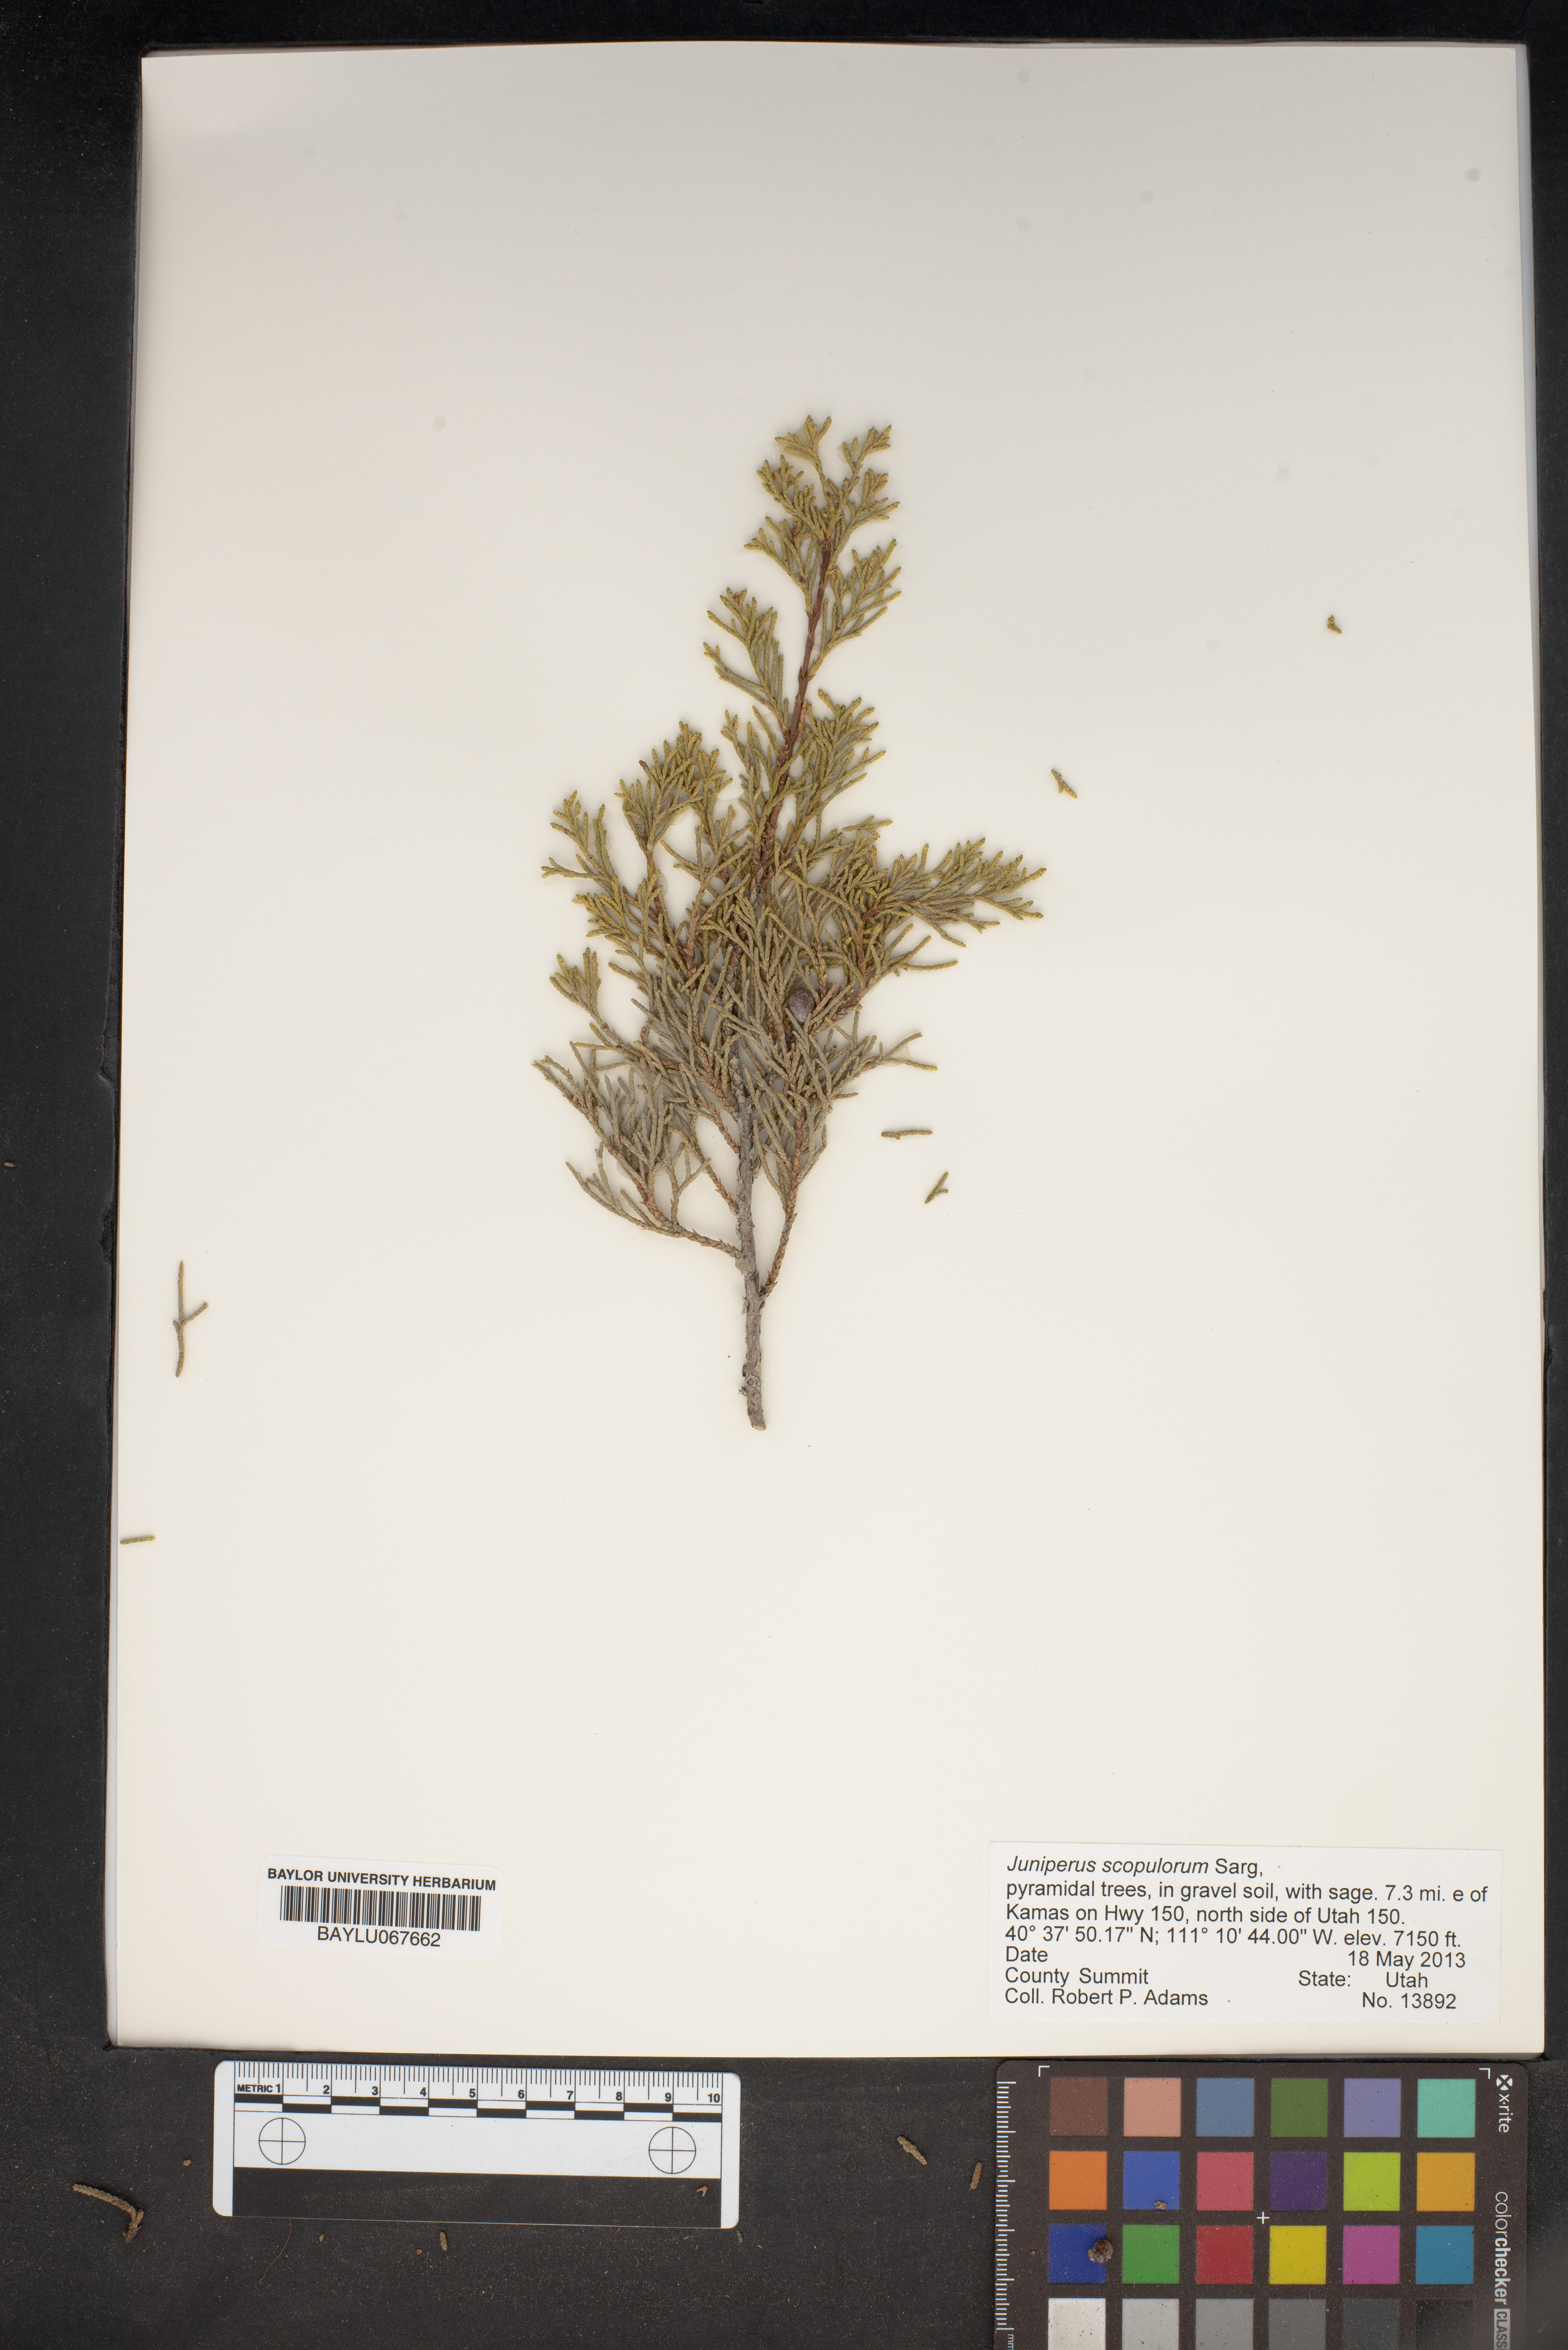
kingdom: Plantae
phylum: Tracheophyta
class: Pinopsida
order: Pinales
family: Cupressaceae
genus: Juniperus
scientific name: Juniperus scopulorum
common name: Rocky mountain juniper
